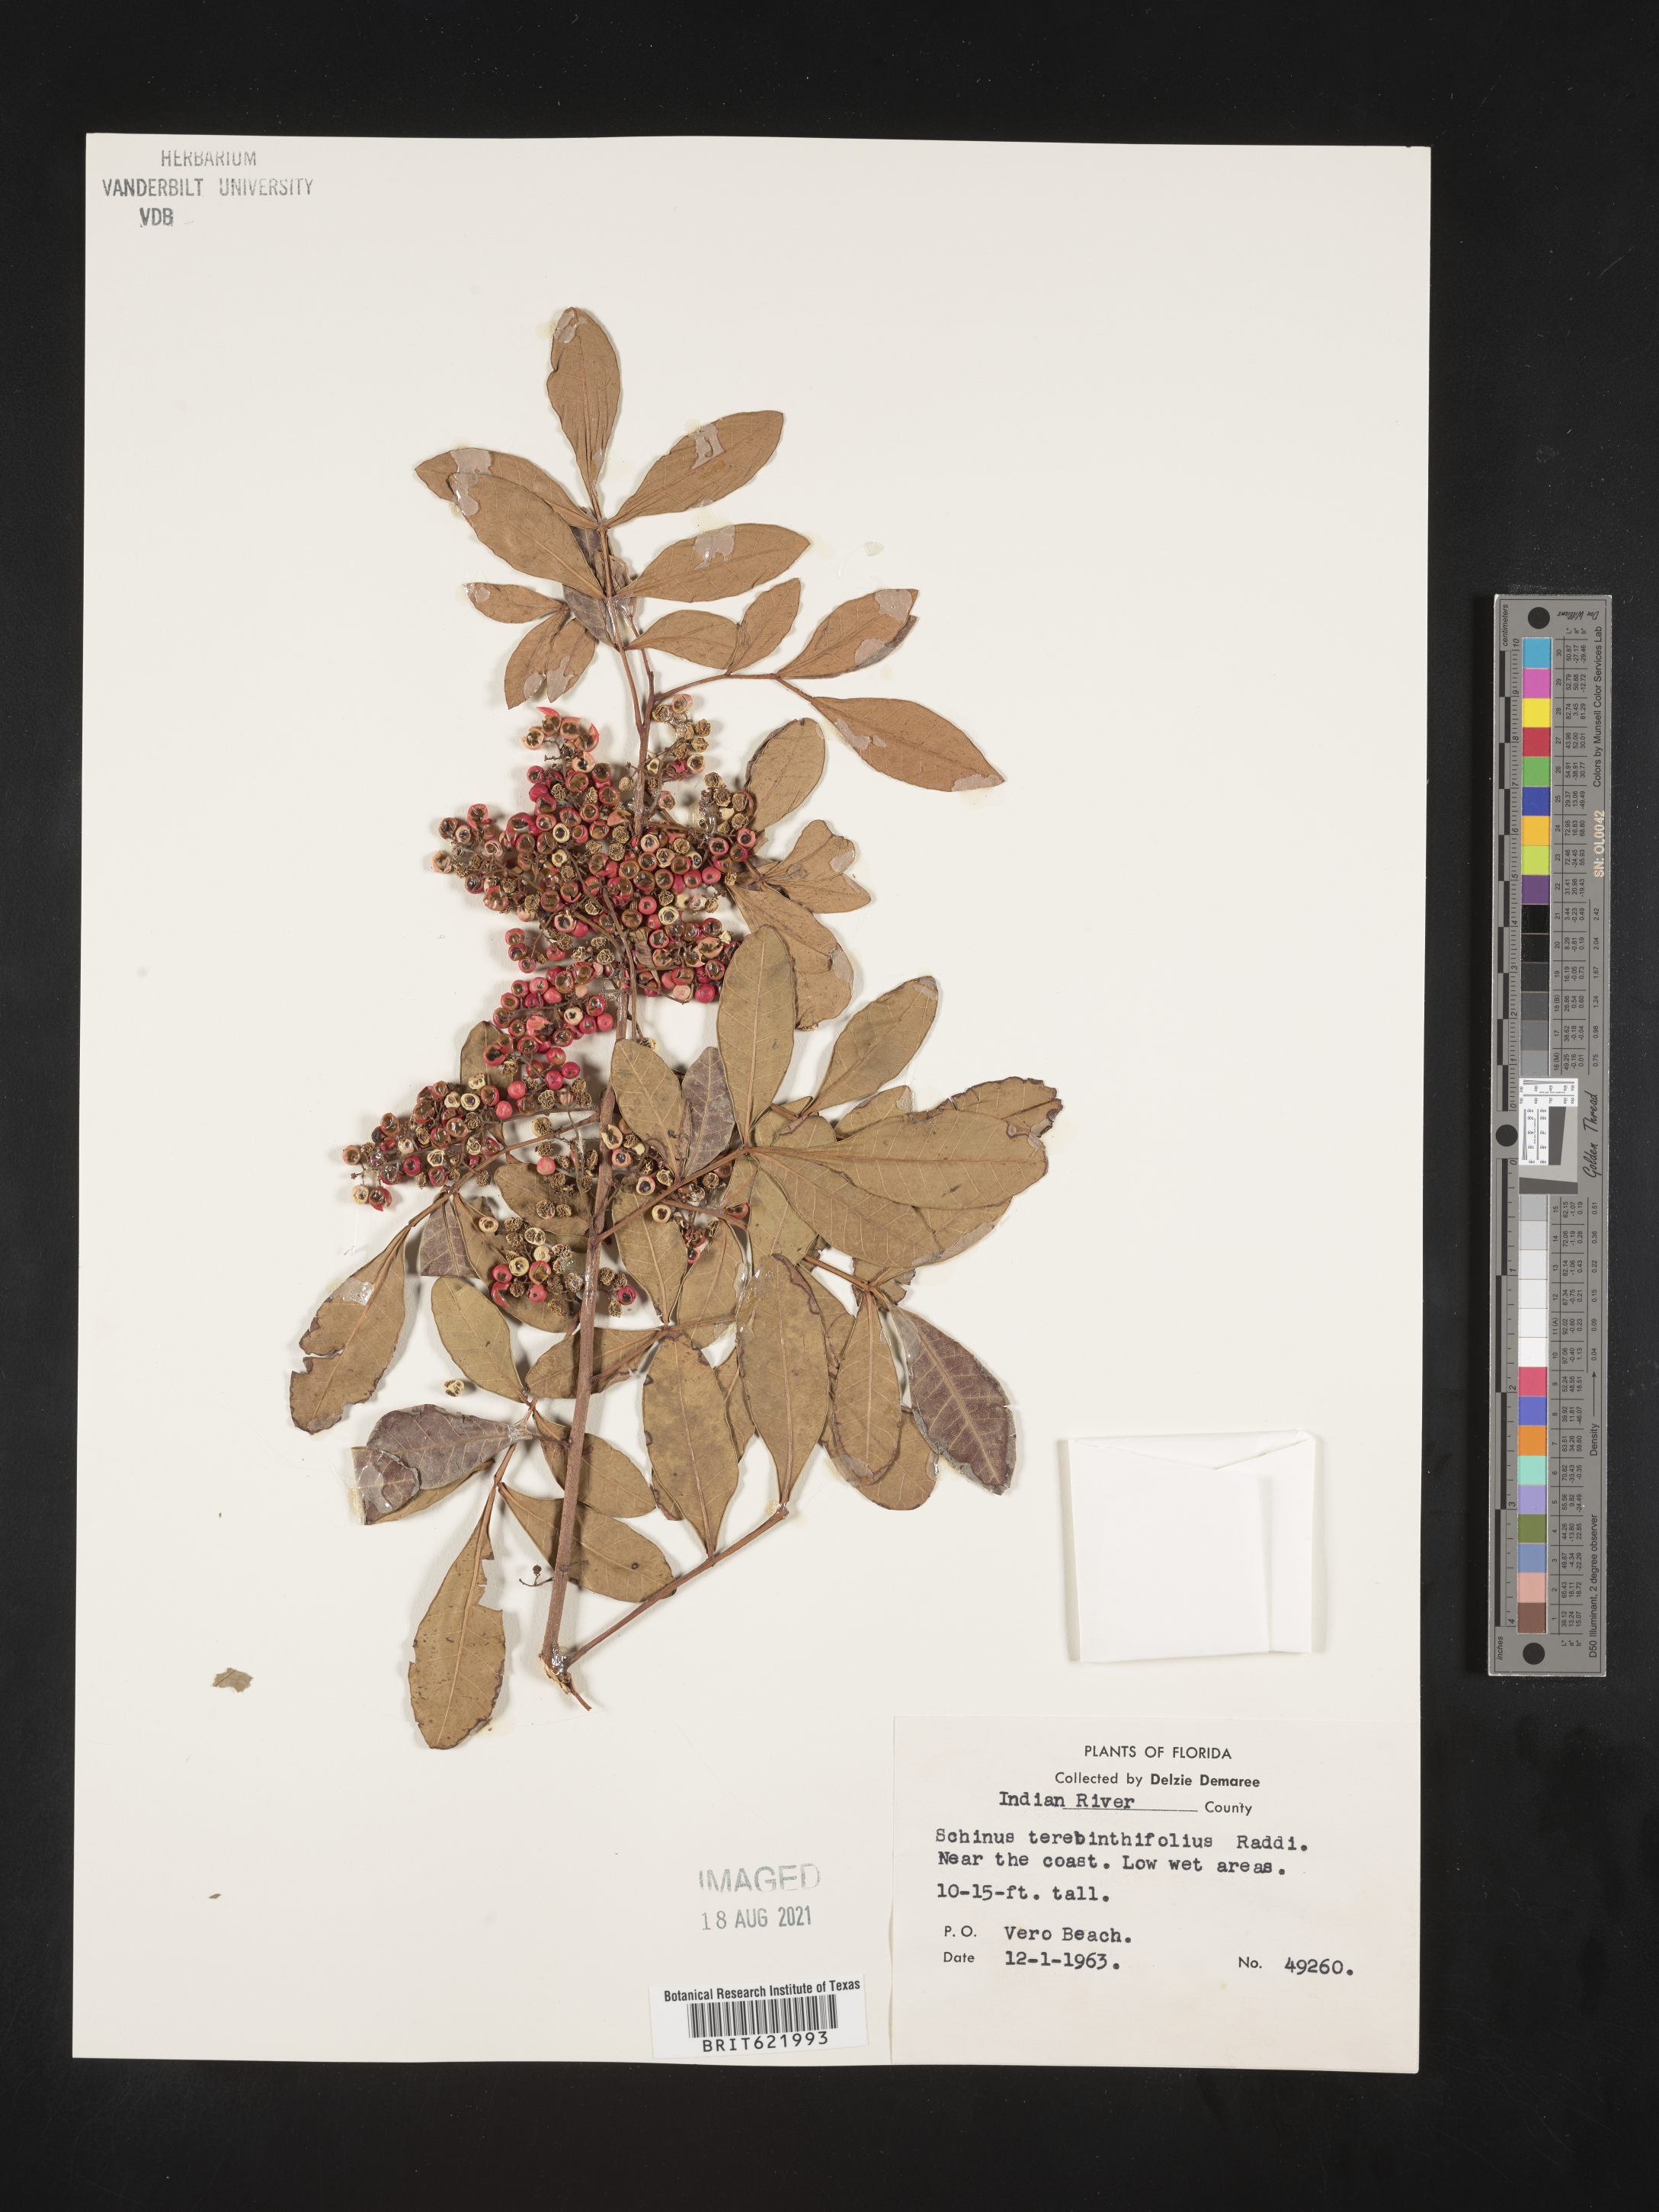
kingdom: Plantae
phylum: Tracheophyta
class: Magnoliopsida
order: Sapindales
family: Anacardiaceae
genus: Schinus
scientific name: Schinus terebinthifolia
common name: Brazilian peppertree
